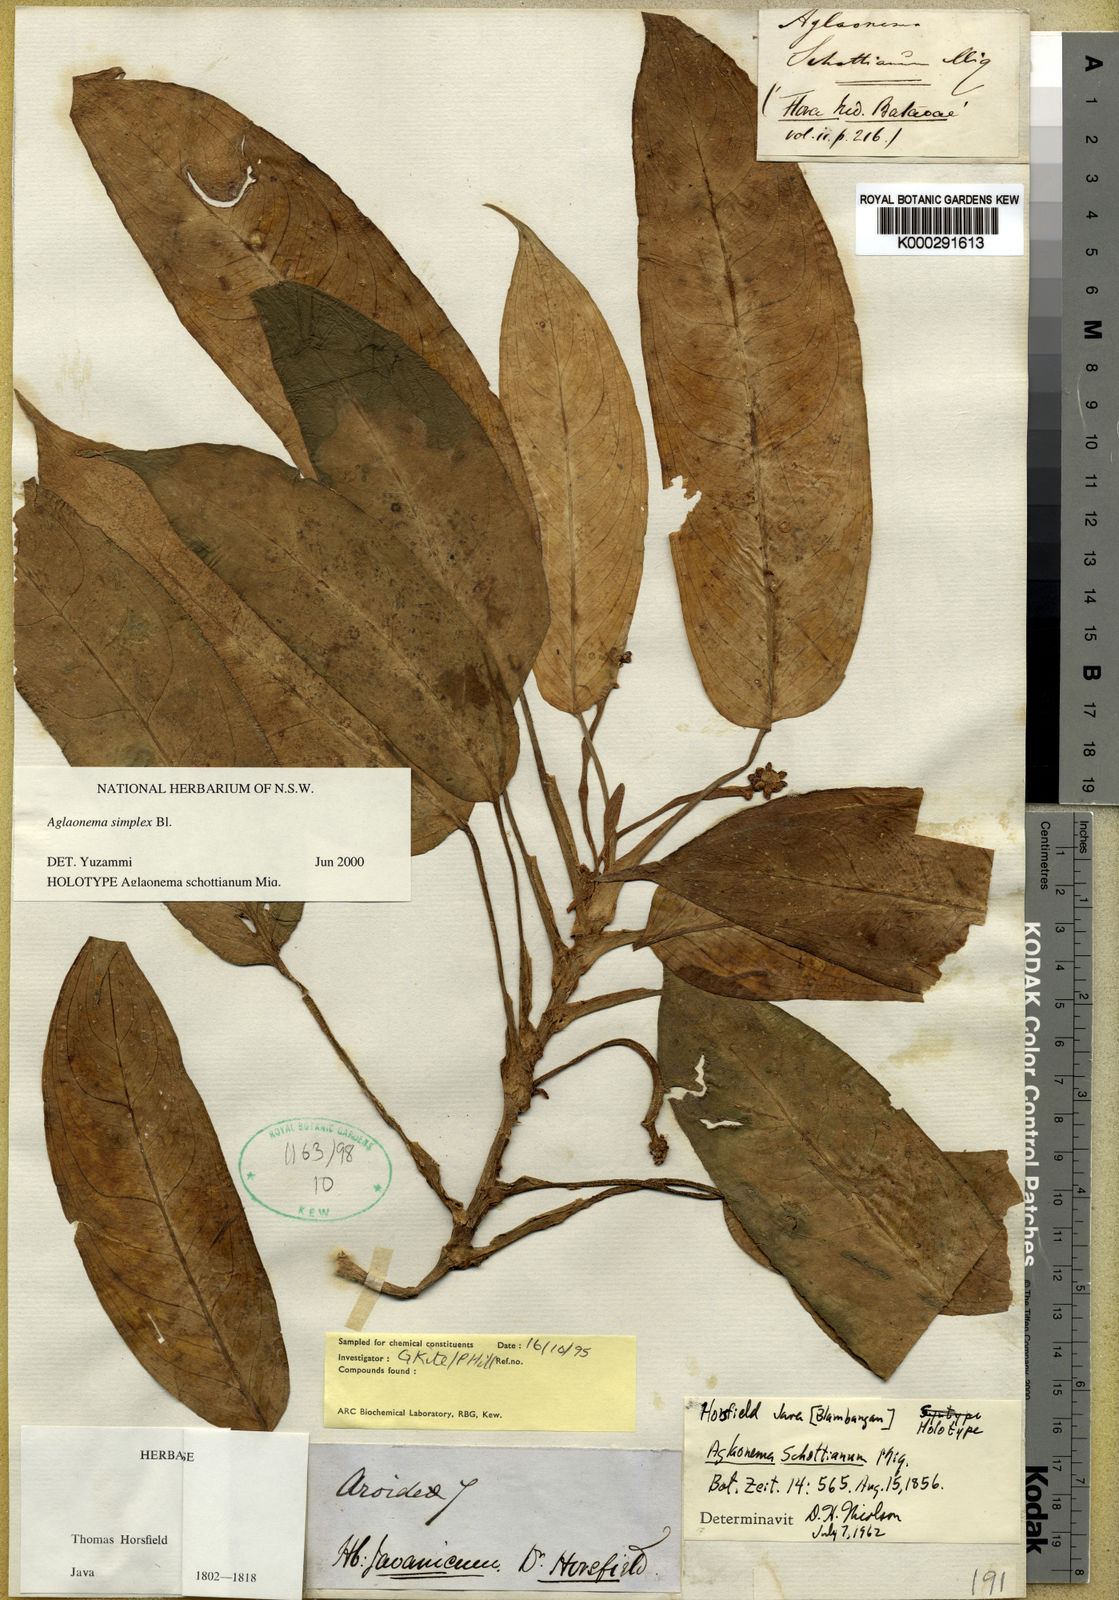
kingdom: Plantae
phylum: Tracheophyta
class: Liliopsida
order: Alismatales
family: Araceae
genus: Aglaonema
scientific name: Aglaonema simplex
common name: Malayan-sword
